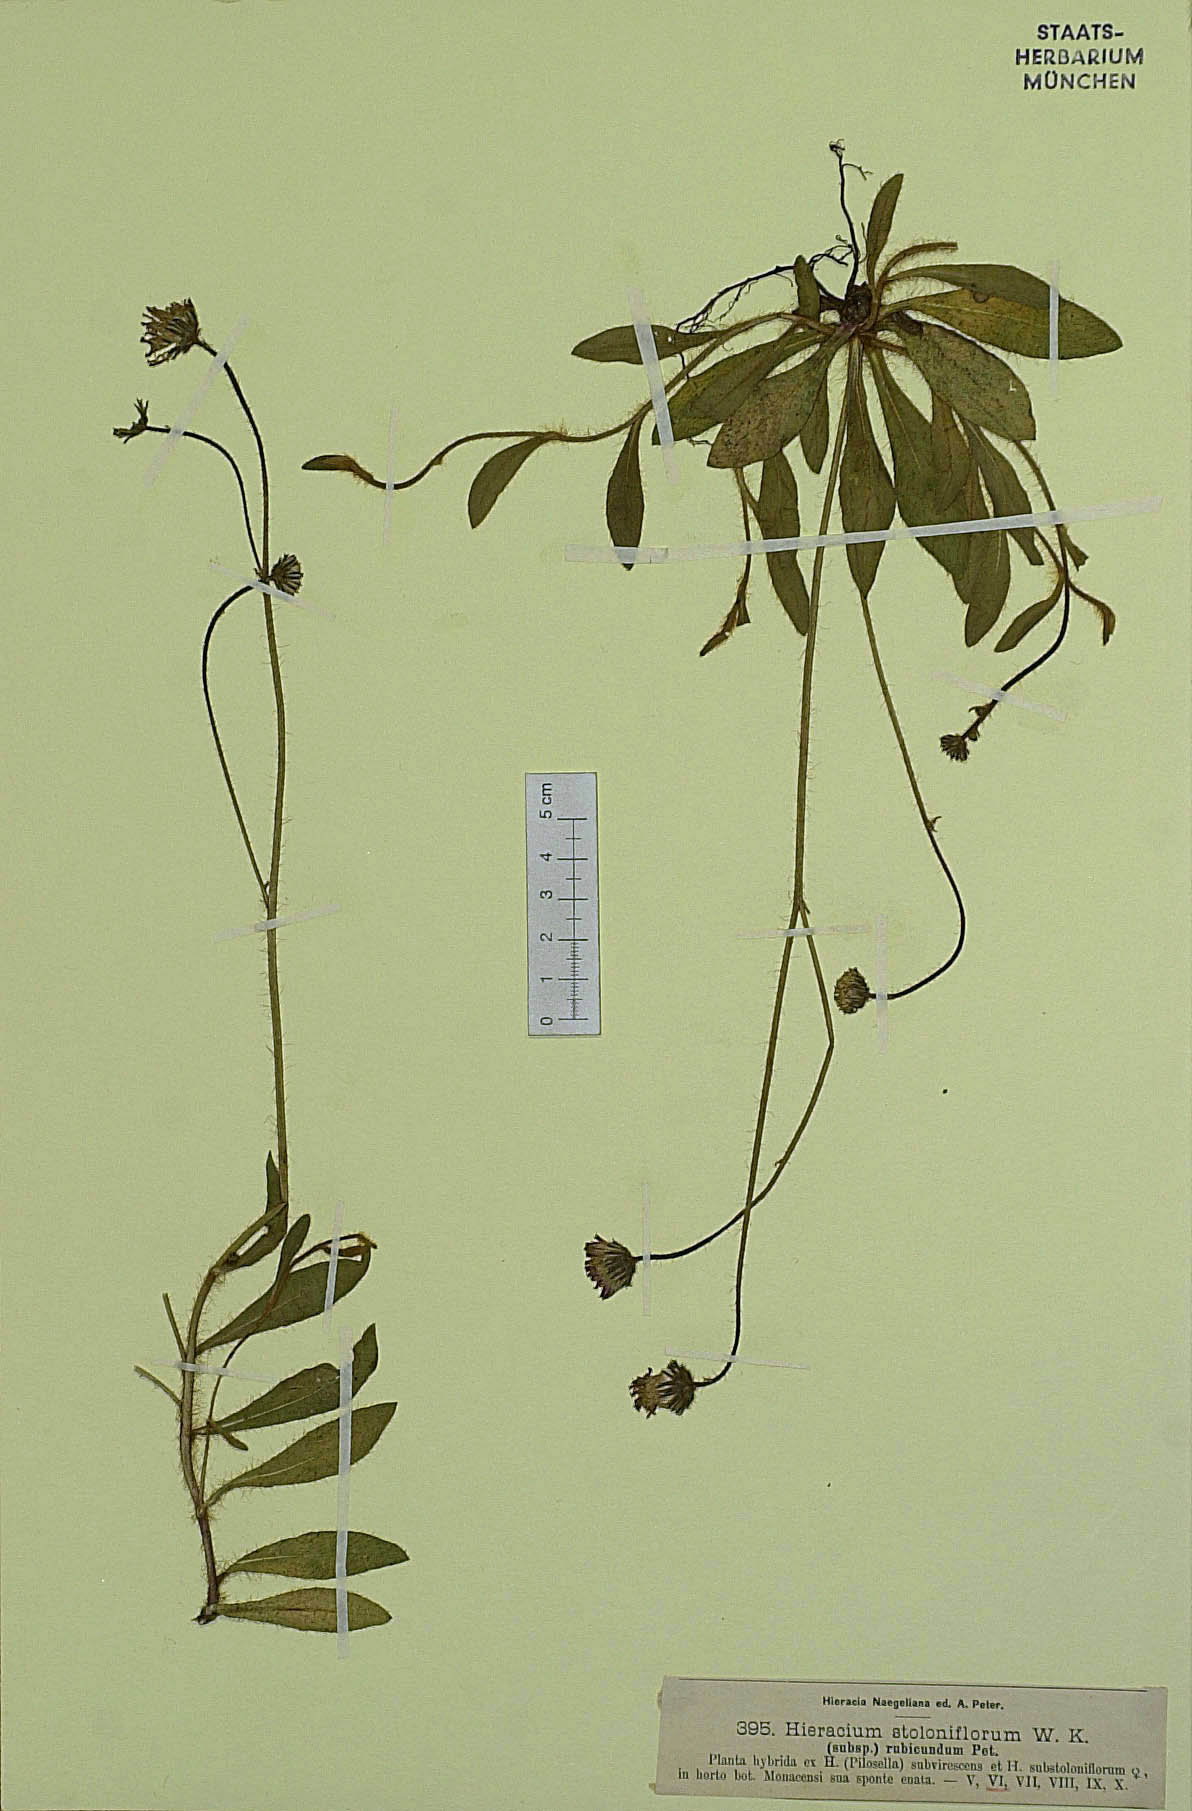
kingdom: Plantae
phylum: Tracheophyta
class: Magnoliopsida
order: Asterales
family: Asteraceae
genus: Pilosella
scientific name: Pilosella substoloniflora
